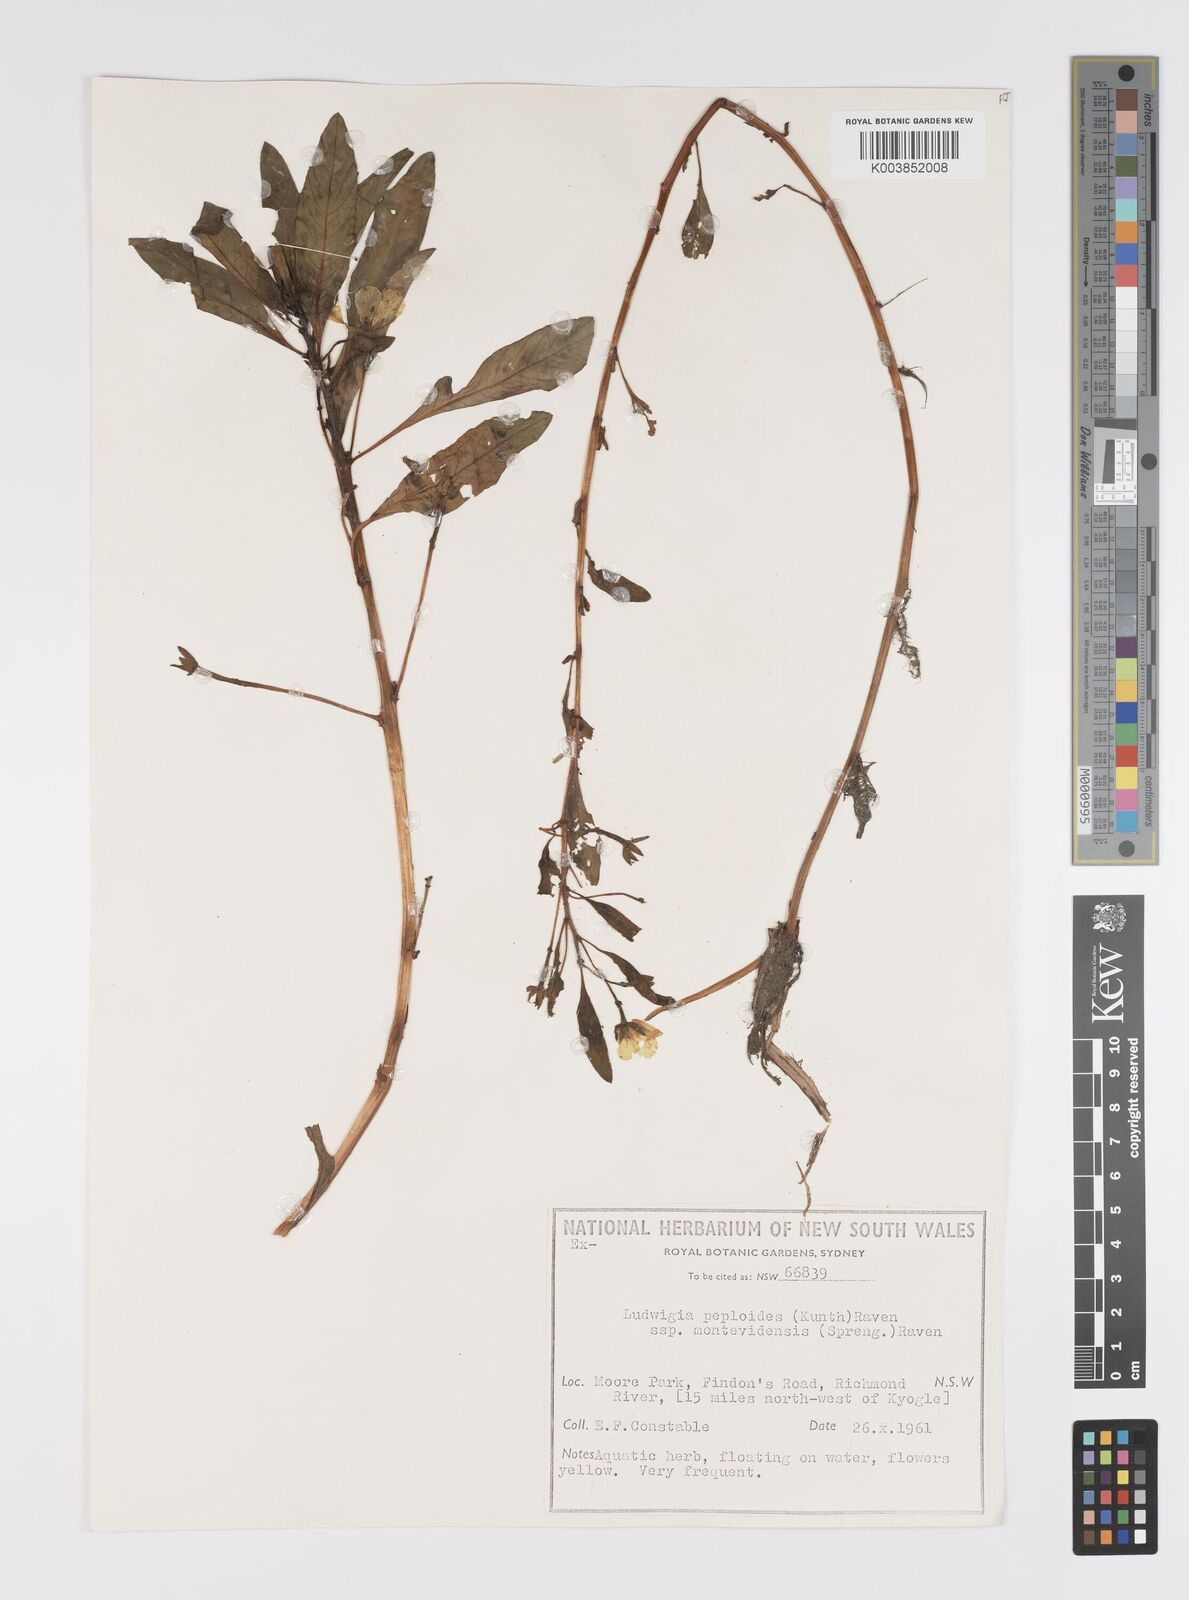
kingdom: Plantae
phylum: Tracheophyta
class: Magnoliopsida
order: Myrtales
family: Onagraceae
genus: Ludwigia
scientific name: Ludwigia peploides
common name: Floating primrose-willow
